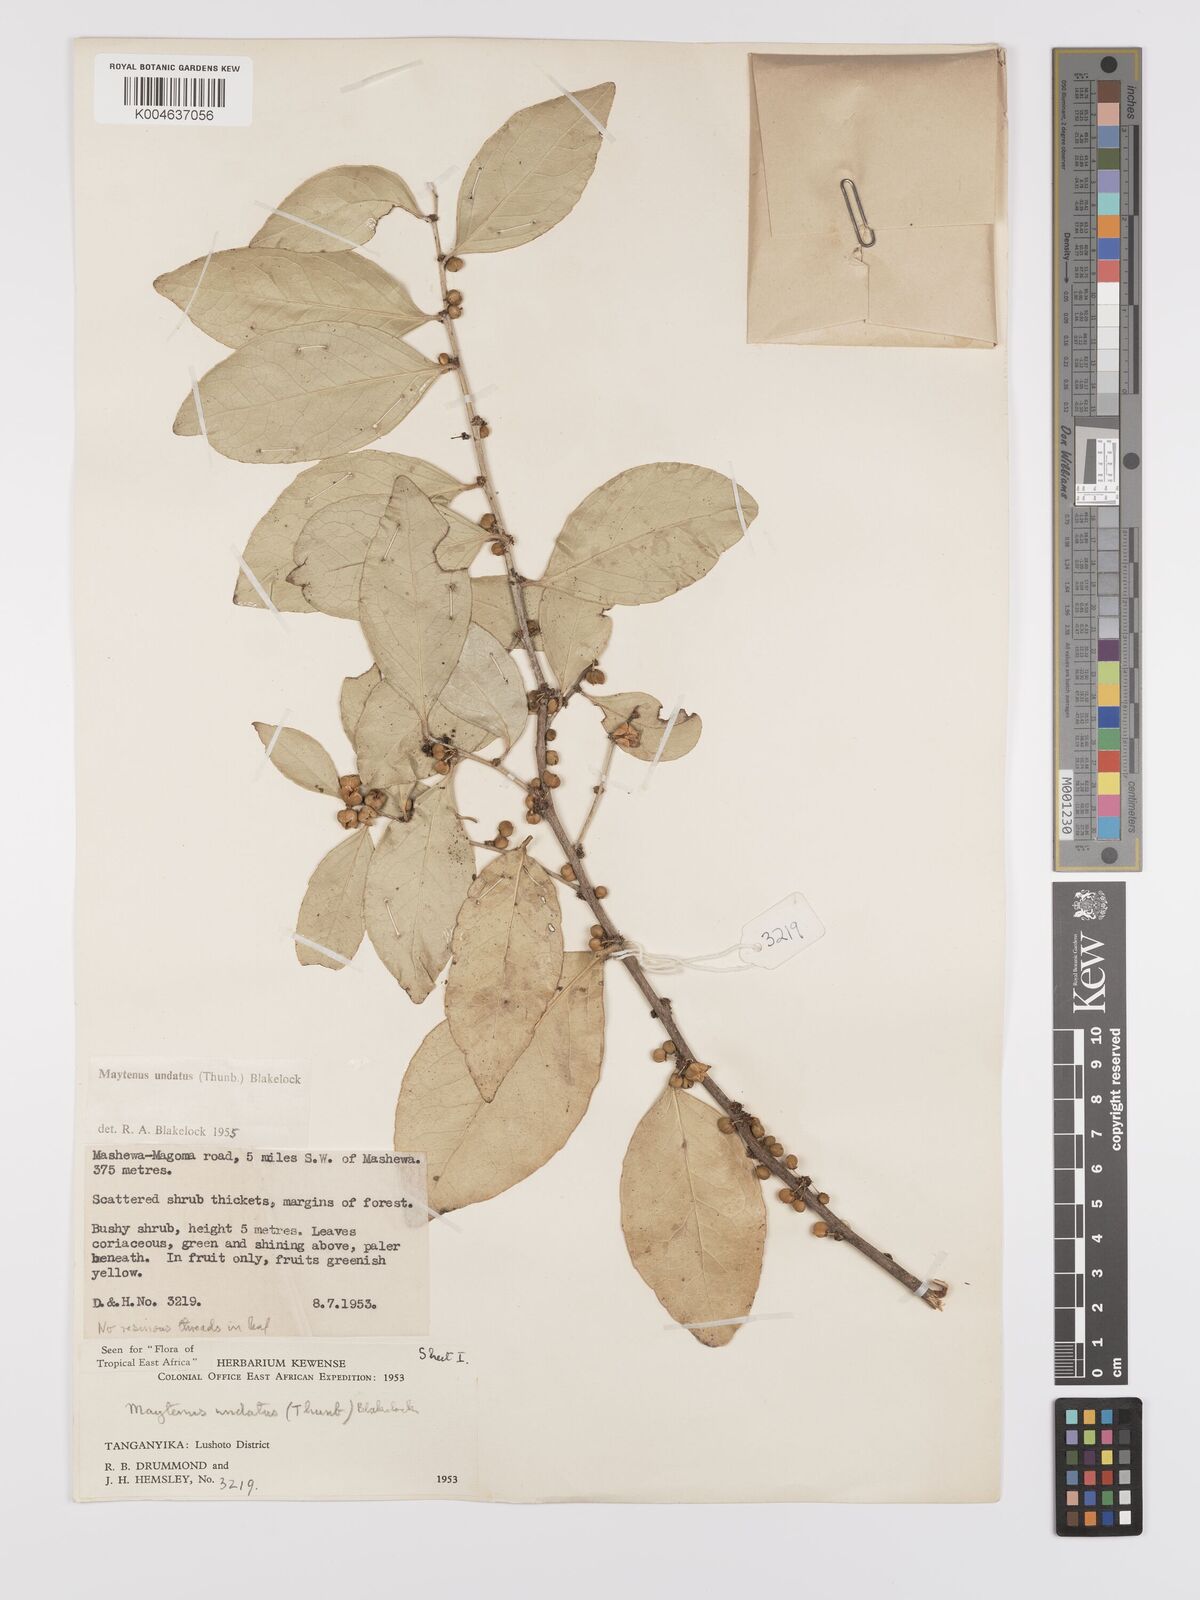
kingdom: Plantae
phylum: Tracheophyta
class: Magnoliopsida
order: Celastrales
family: Celastraceae
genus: Gymnosporia
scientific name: Gymnosporia undata
